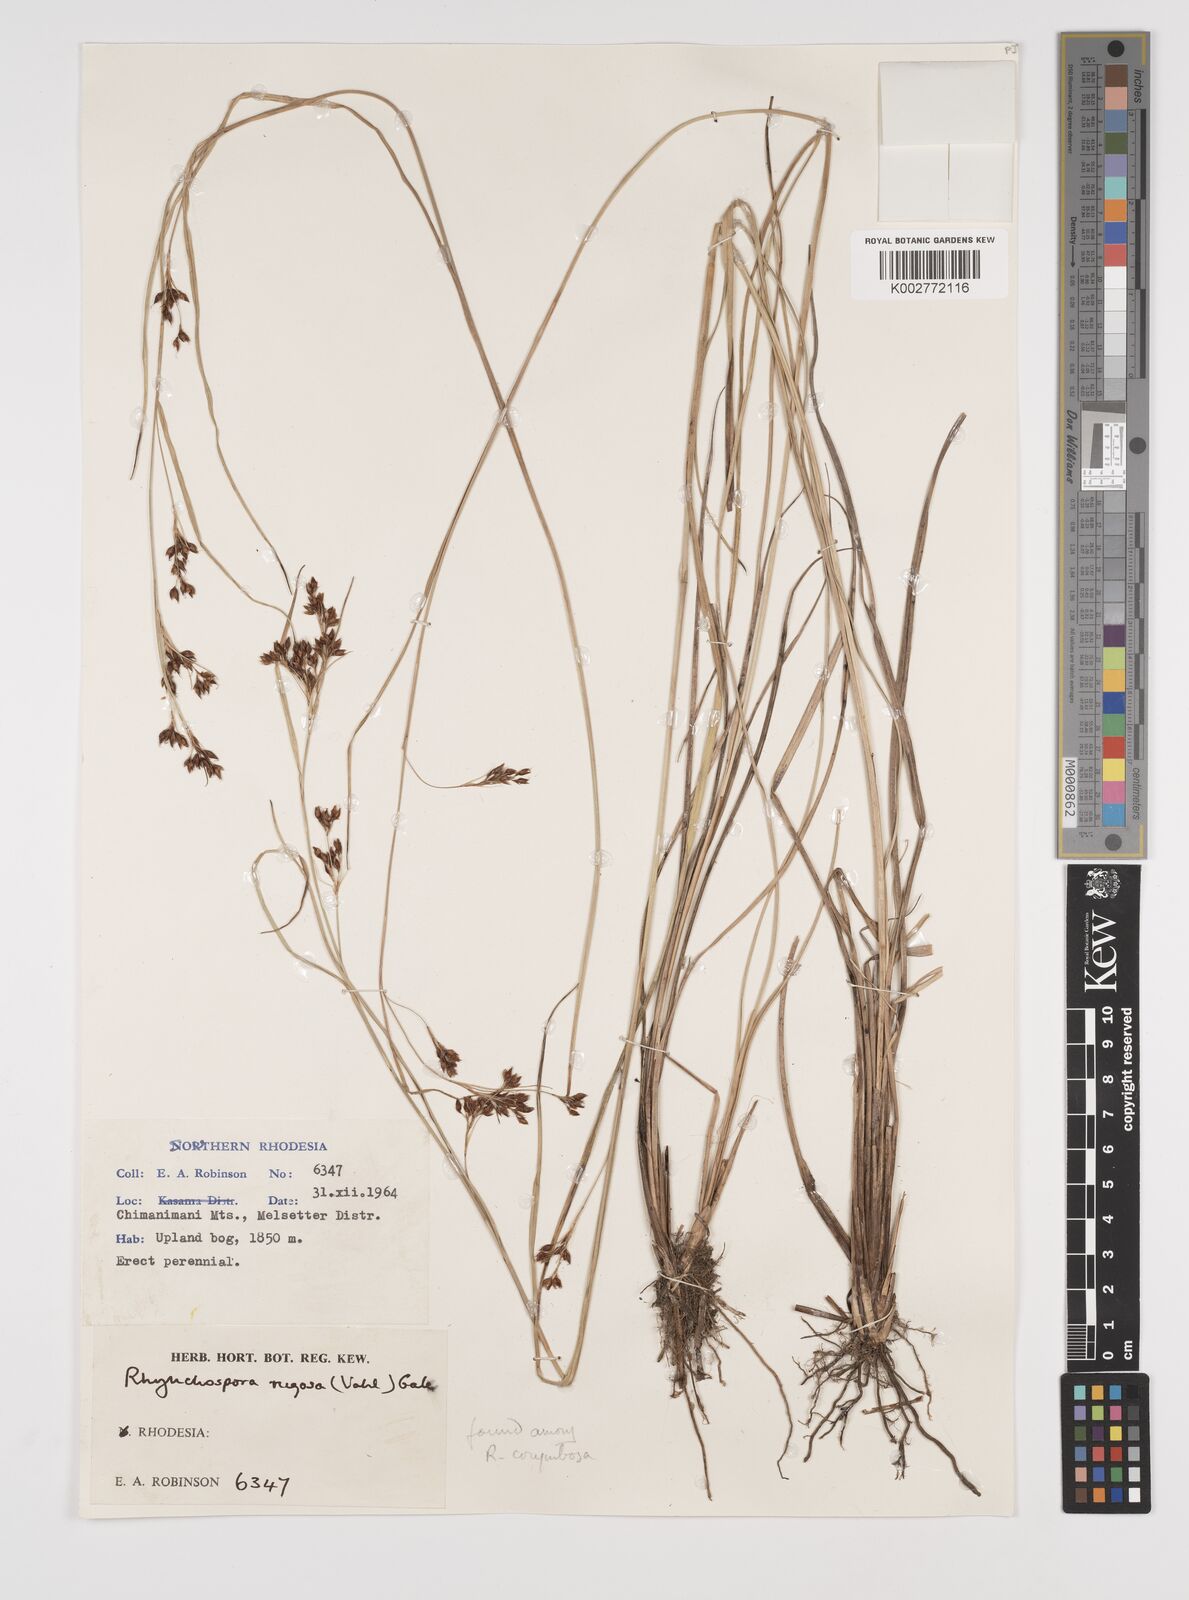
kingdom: Plantae
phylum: Tracheophyta
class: Liliopsida
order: Poales
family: Cyperaceae
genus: Rhynchospora
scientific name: Rhynchospora rugosa
